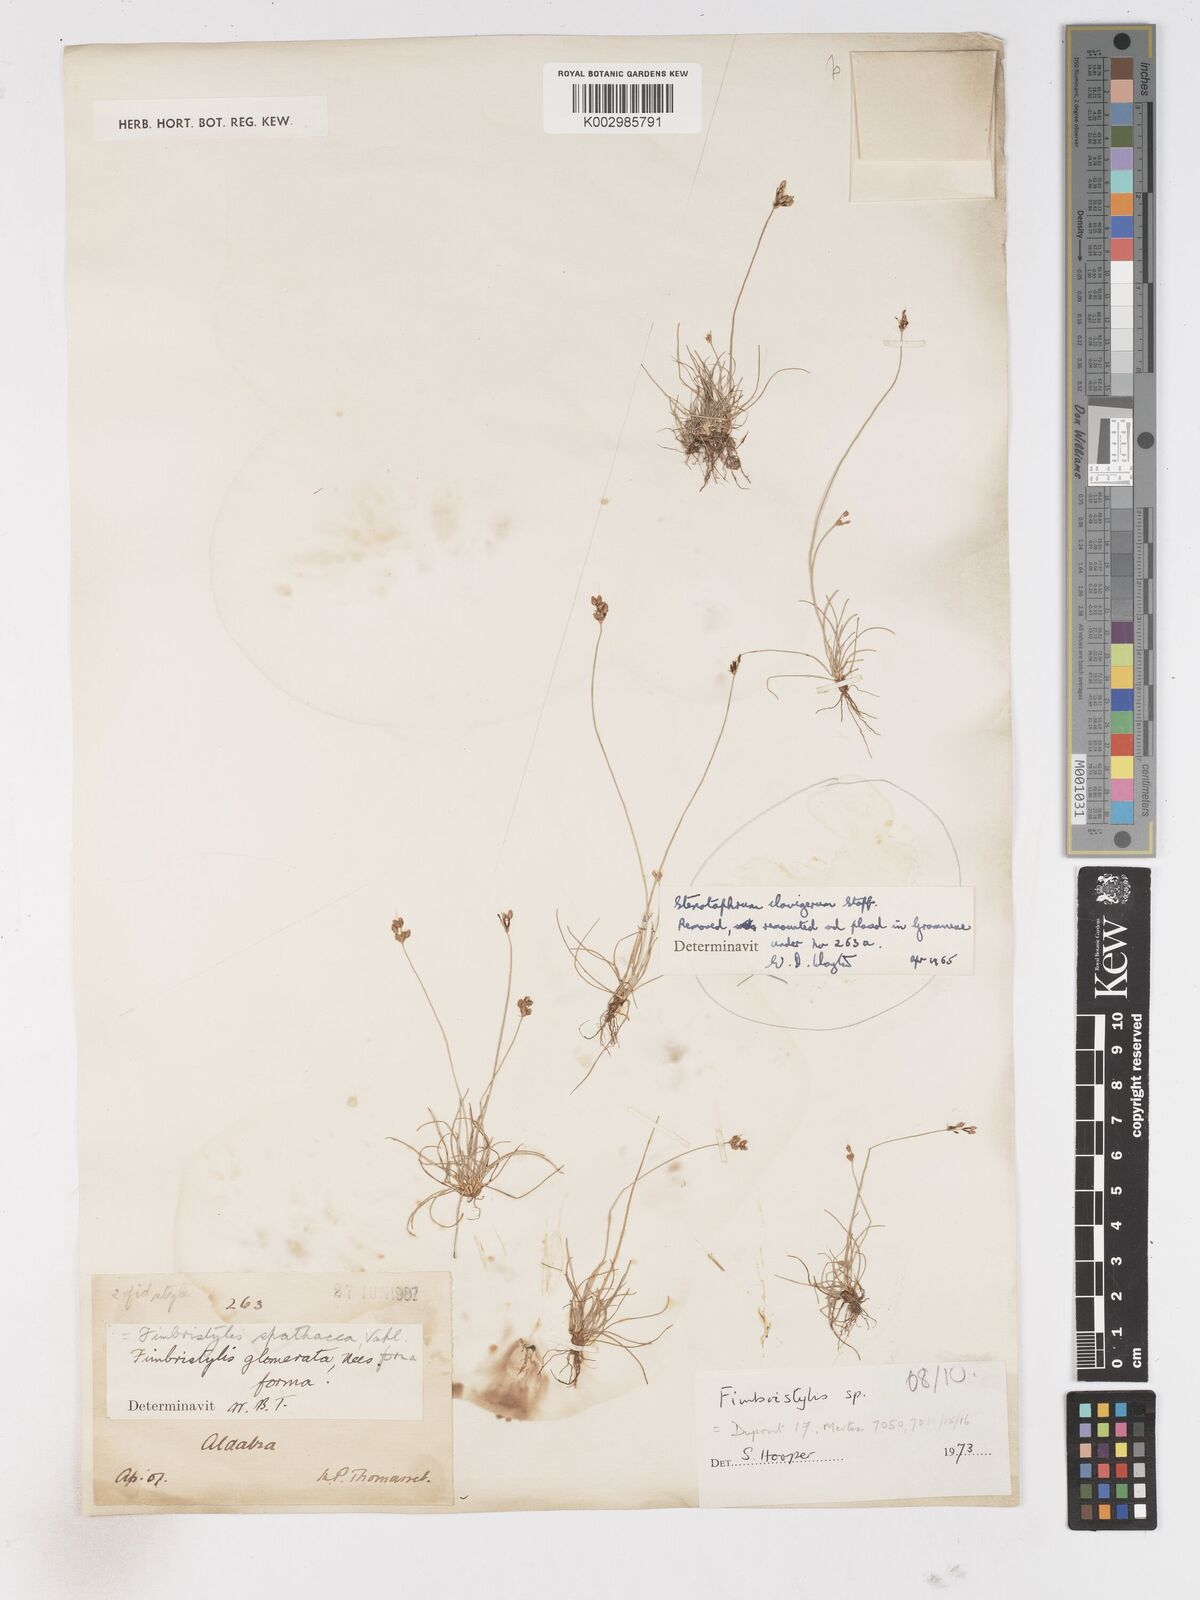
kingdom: Plantae
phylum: Tracheophyta
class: Liliopsida
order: Poales
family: Cyperaceae
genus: Fimbristylis
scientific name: Fimbristylis
